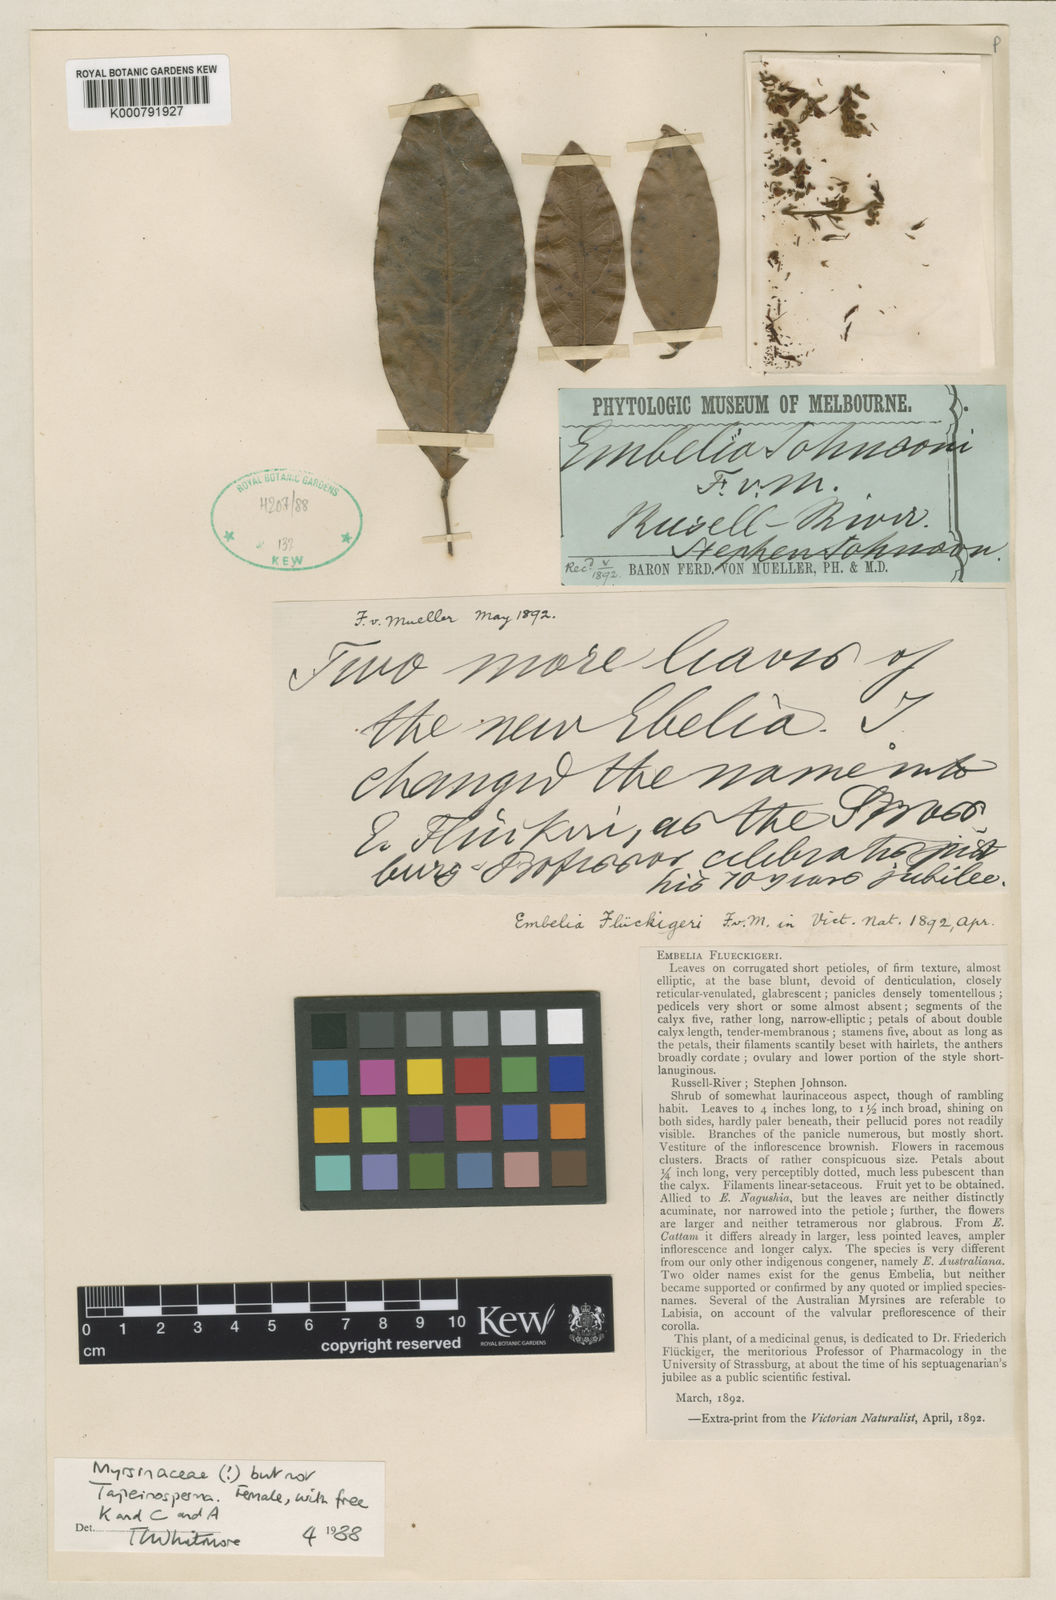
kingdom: Plantae
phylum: Tracheophyta
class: Magnoliopsida
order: Ericales
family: Primulaceae
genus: Embelia
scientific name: Embelia flueckigeri
